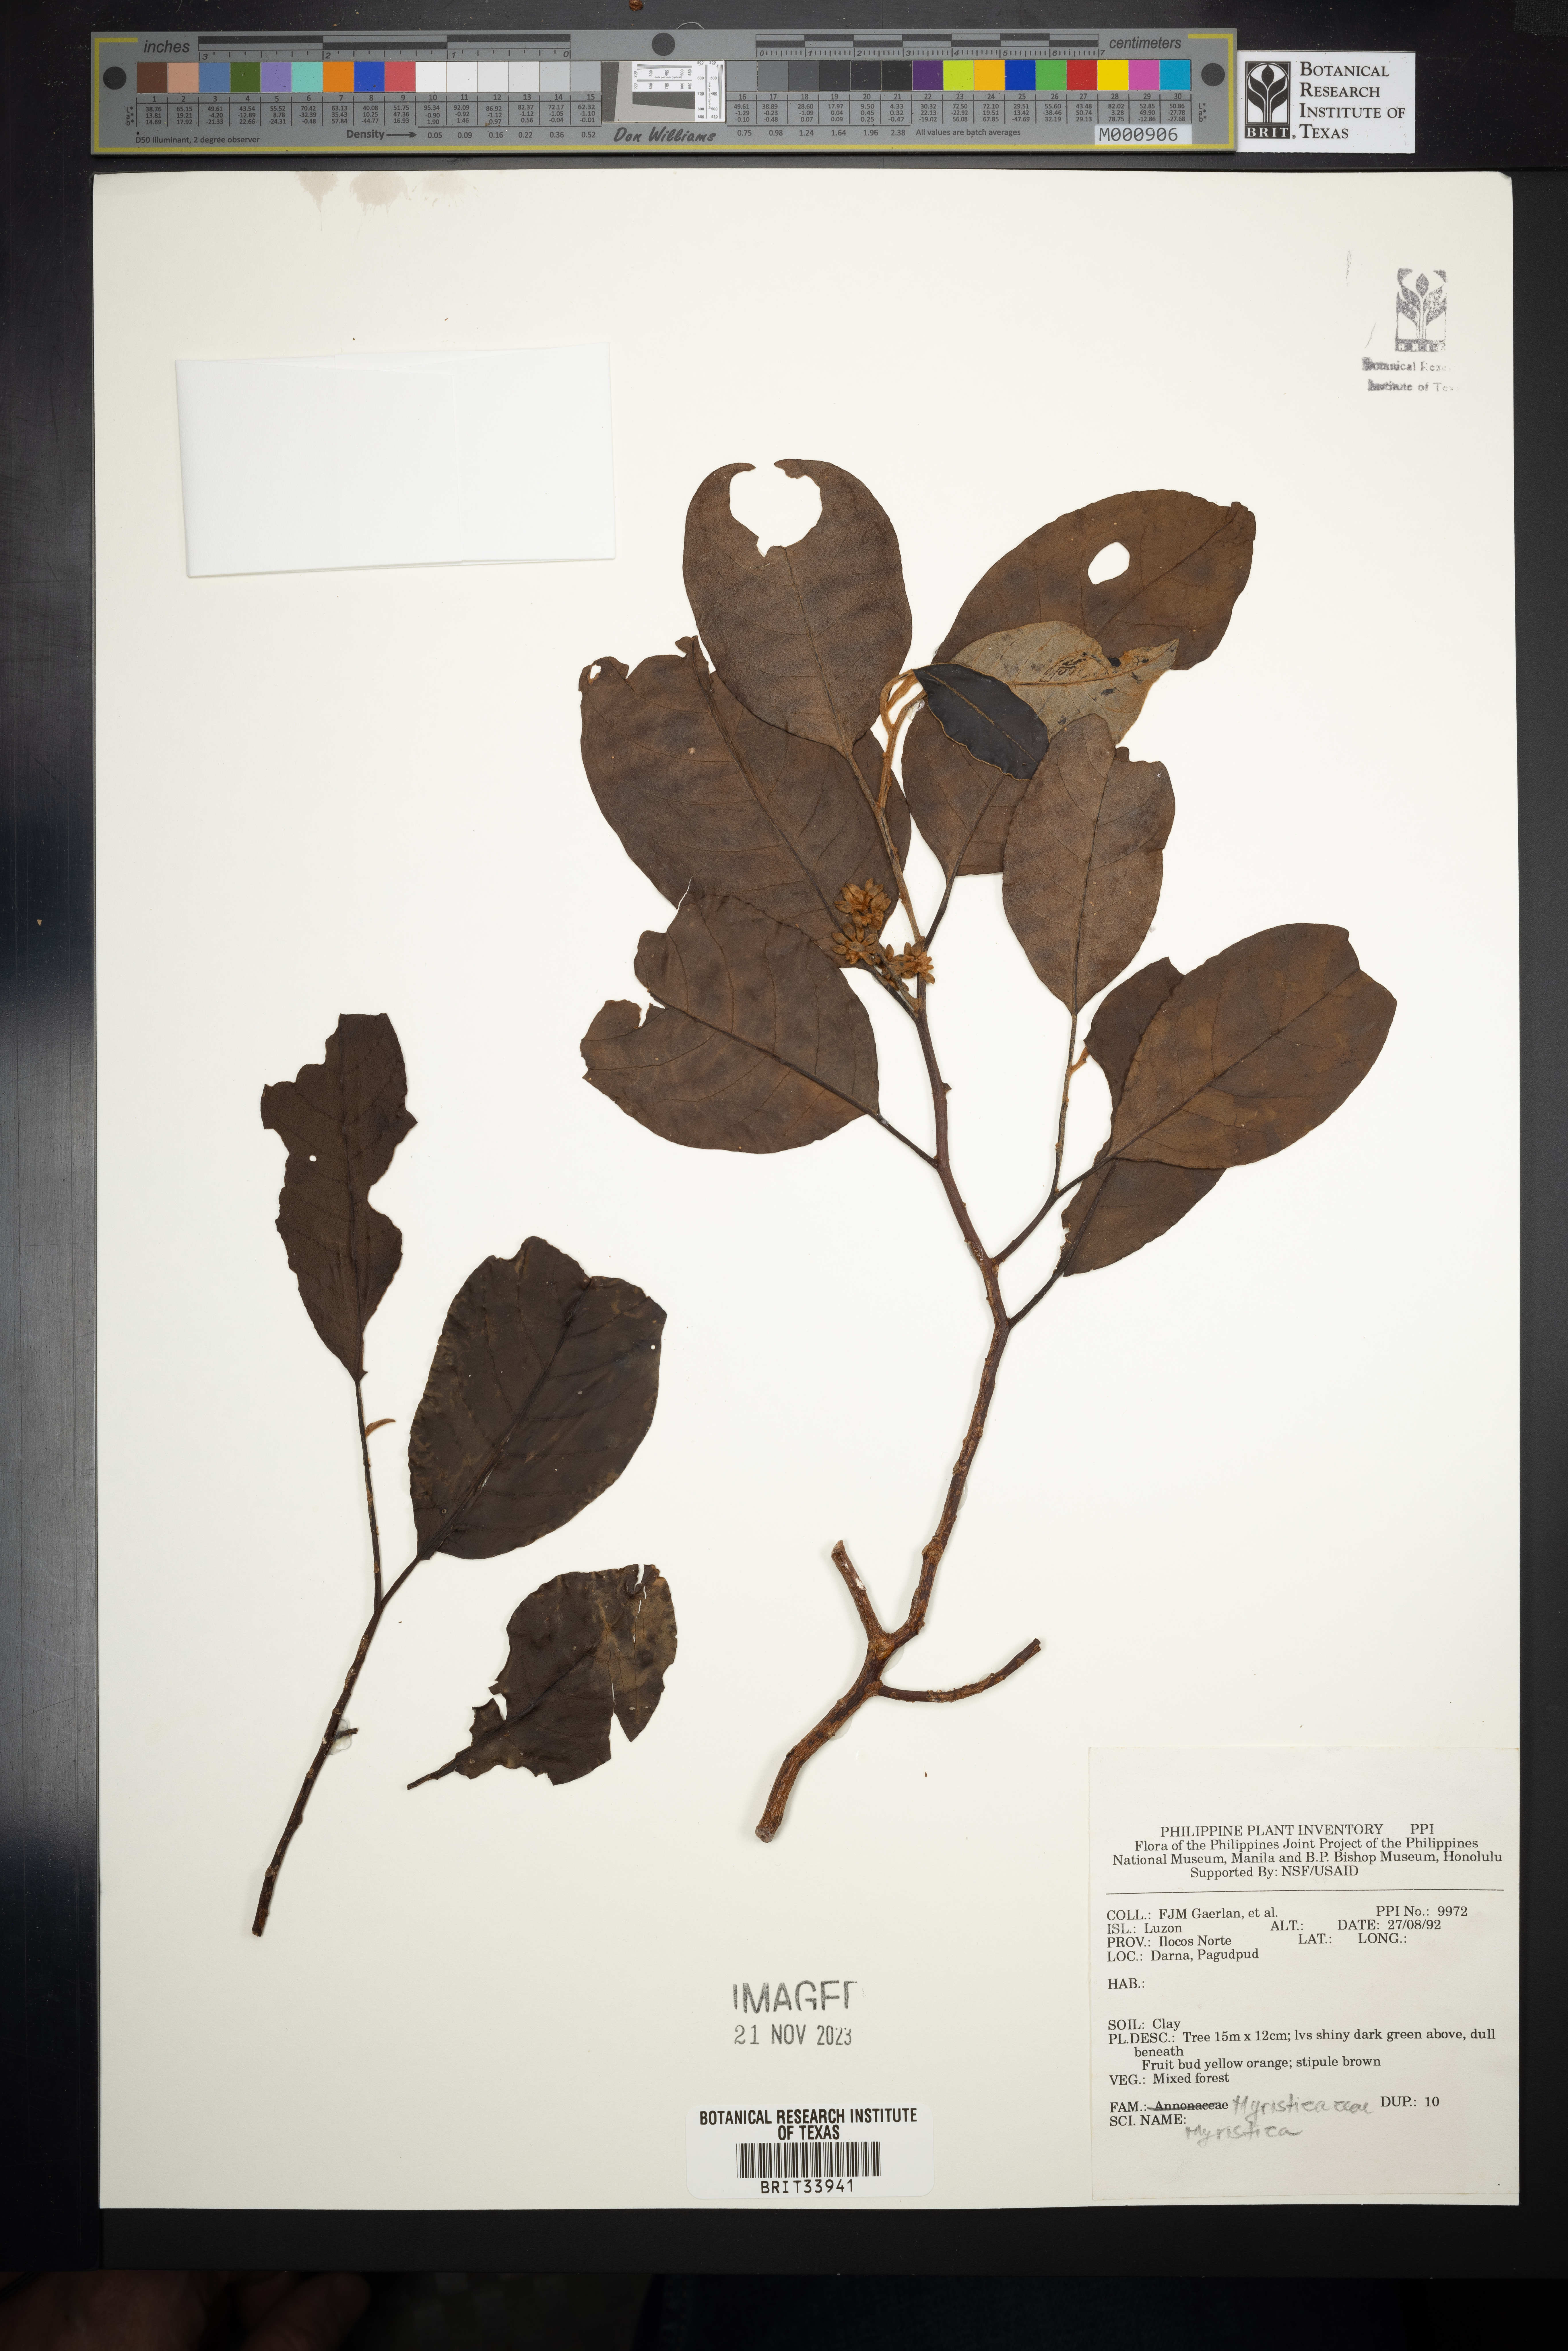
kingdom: Plantae
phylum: Tracheophyta
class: Magnoliopsida
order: Magnoliales
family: Myristicaceae
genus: Myristica
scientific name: Myristica
